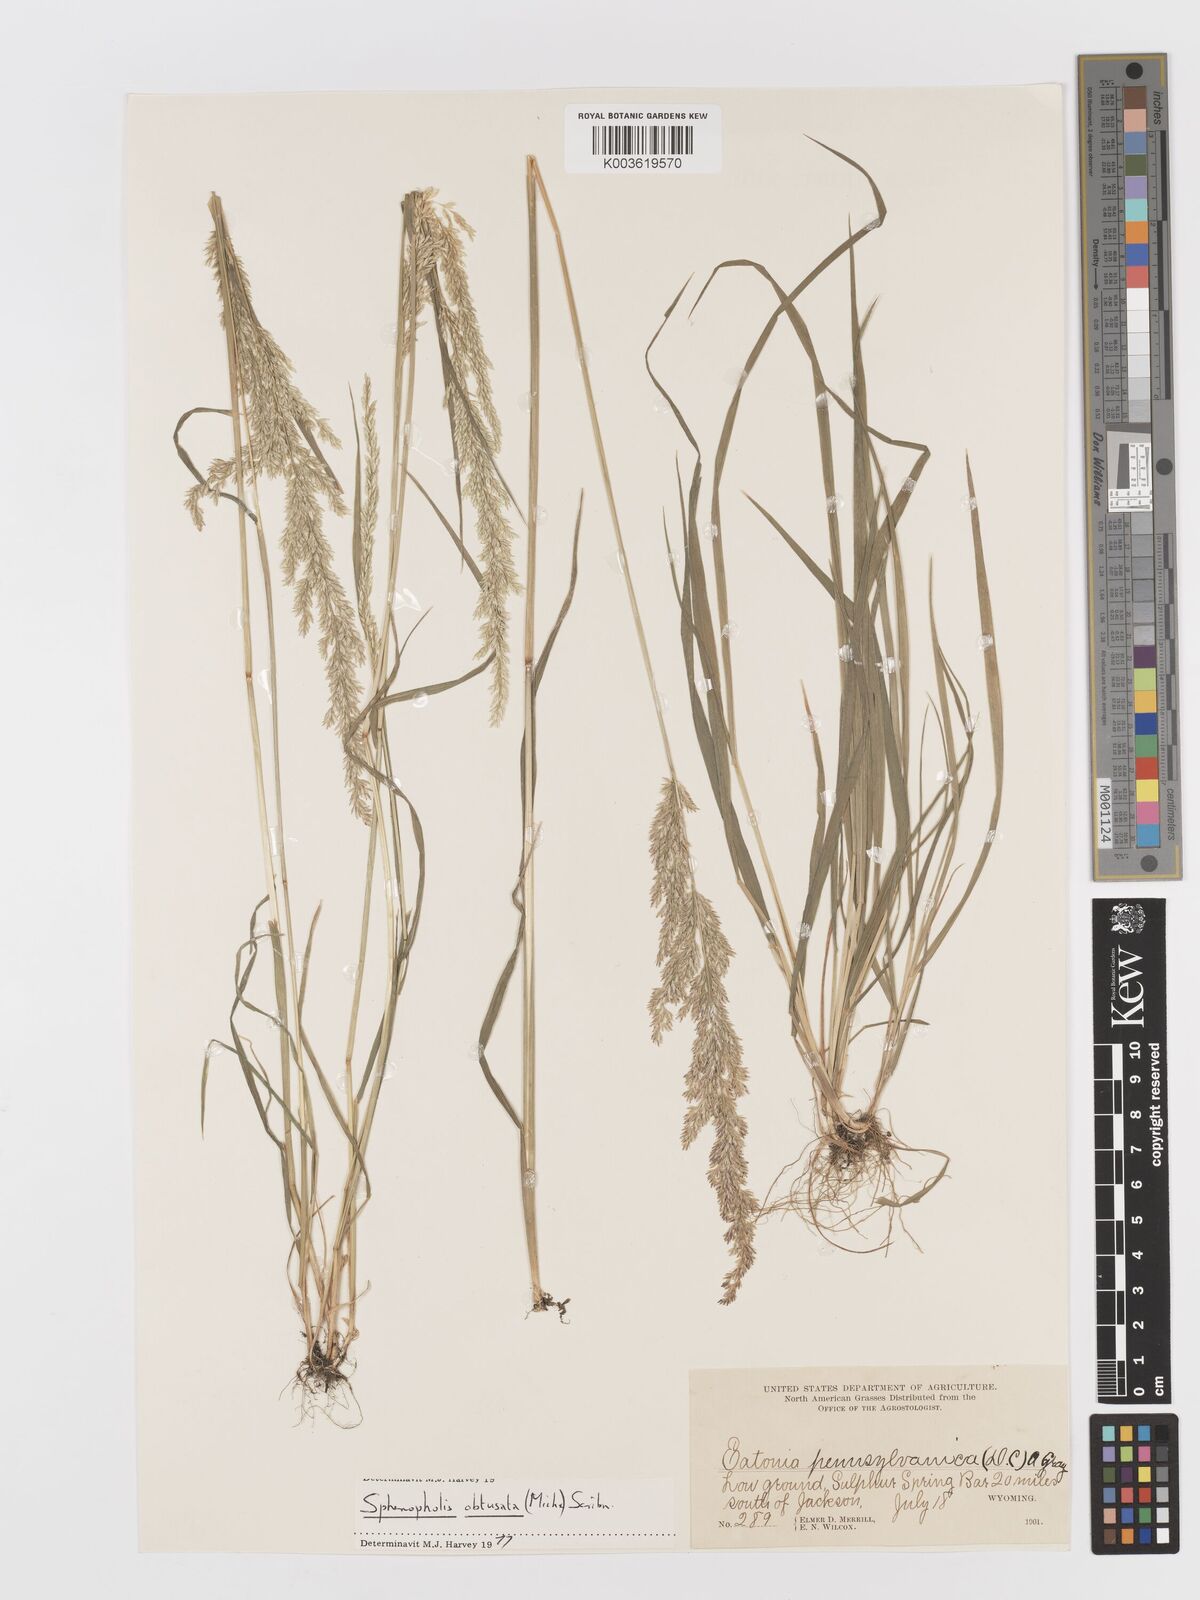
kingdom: Plantae
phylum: Tracheophyta
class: Liliopsida
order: Poales
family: Poaceae
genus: Sphenopholis
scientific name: Sphenopholis obtusata
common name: Prairie grass
